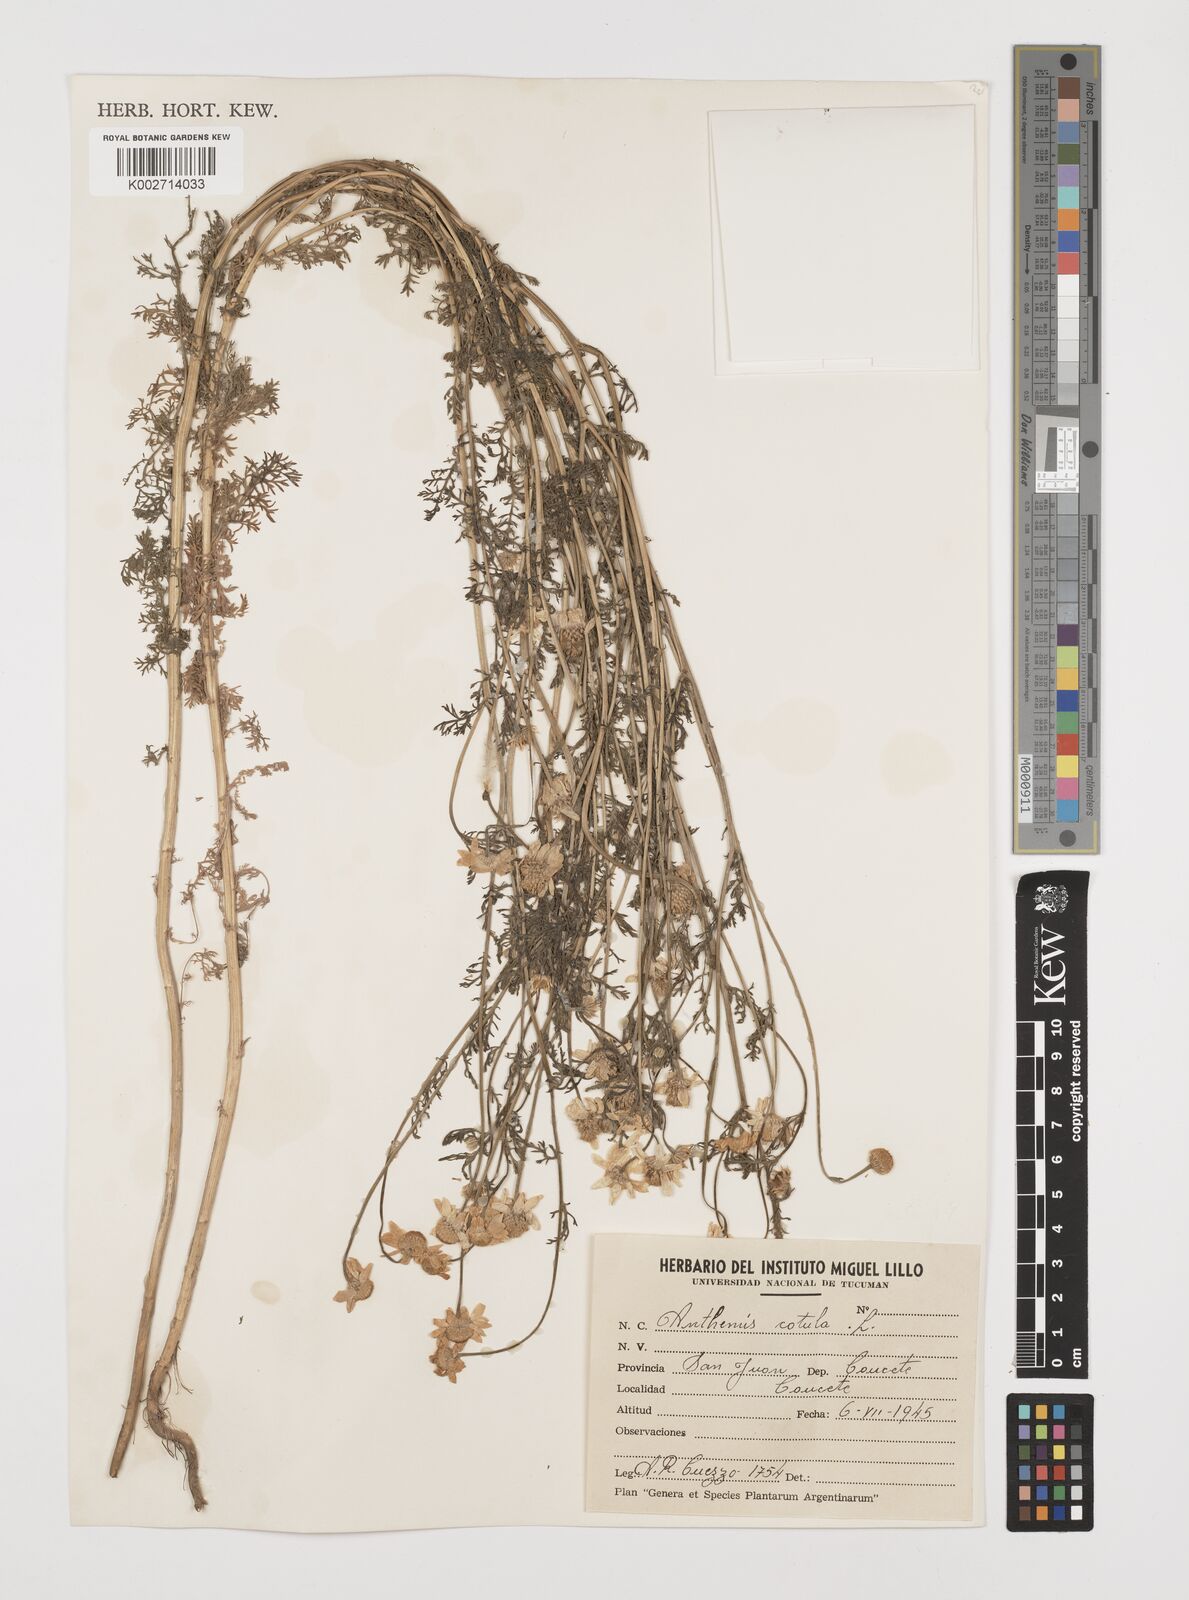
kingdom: Plantae
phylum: Tracheophyta
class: Magnoliopsida
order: Asterales
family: Asteraceae
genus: Anthemis
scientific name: Anthemis cotula
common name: Stinking chamomile
